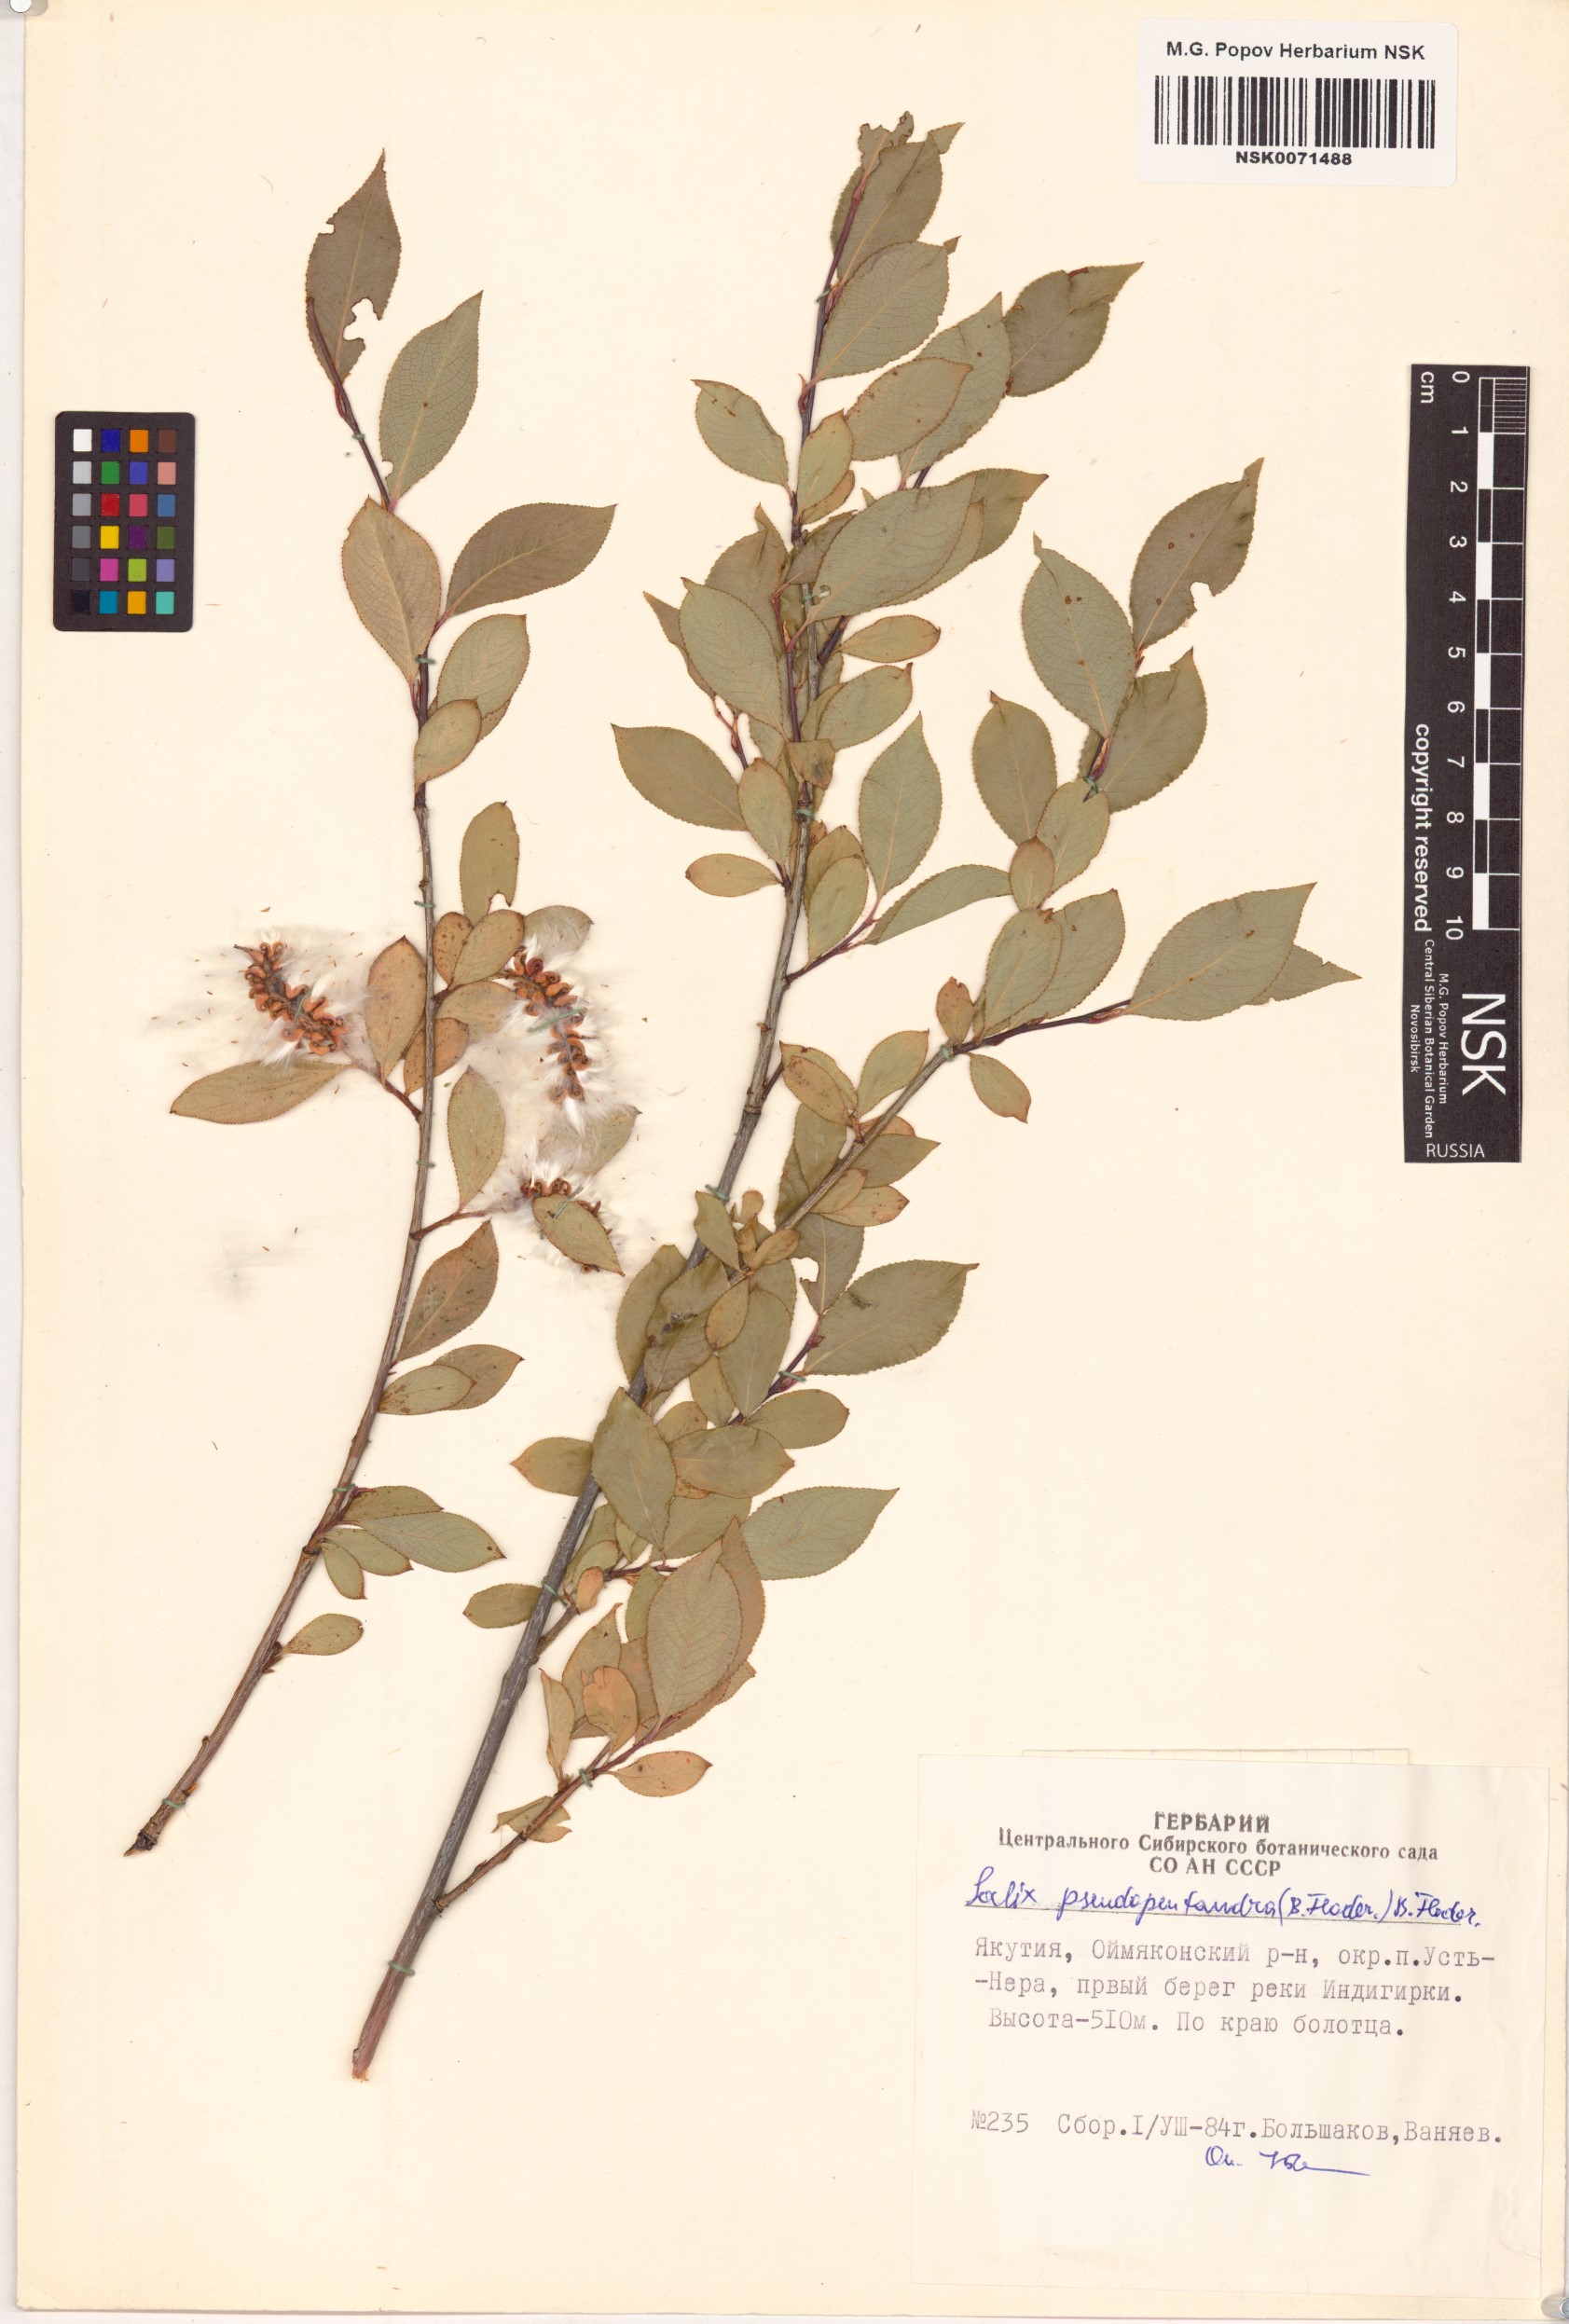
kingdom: Plantae
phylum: Tracheophyta
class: Magnoliopsida
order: Malpighiales
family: Salicaceae
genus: Salix
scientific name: Salix pseudopentandra
